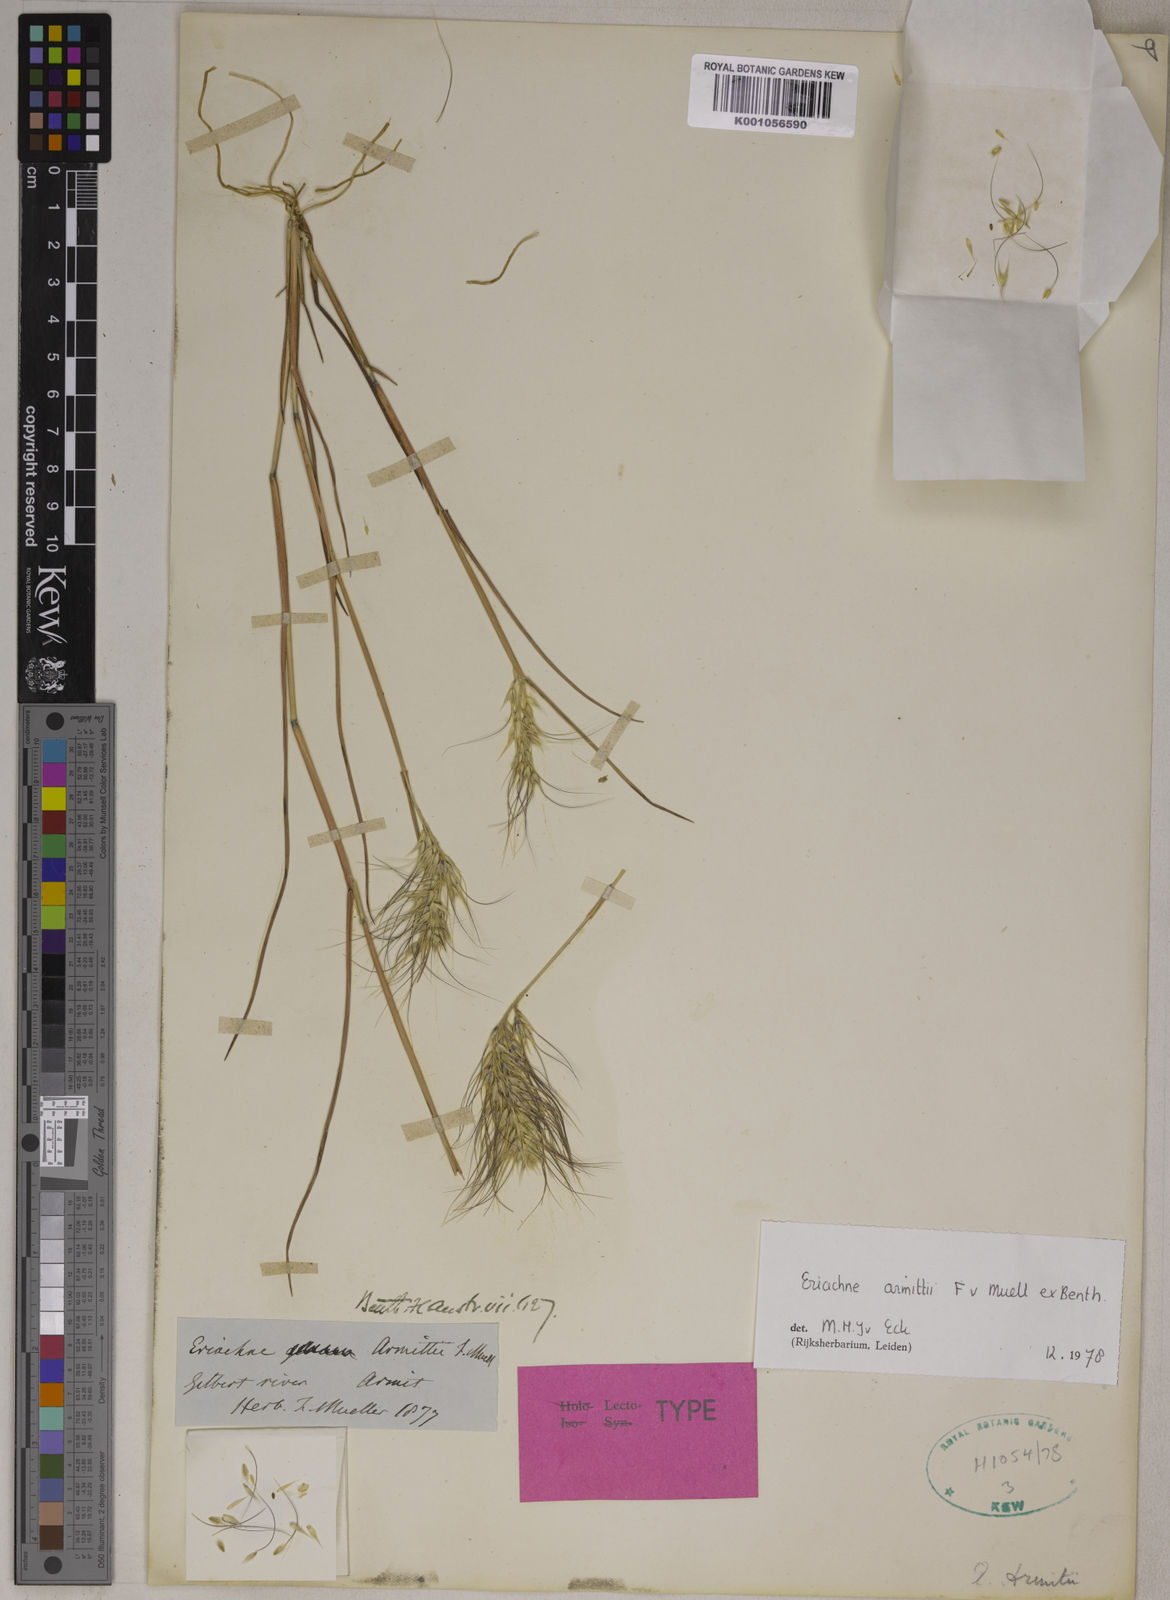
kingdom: Plantae
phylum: Tracheophyta
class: Liliopsida
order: Poales
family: Poaceae
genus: Eriachne
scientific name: Eriachne armitii
